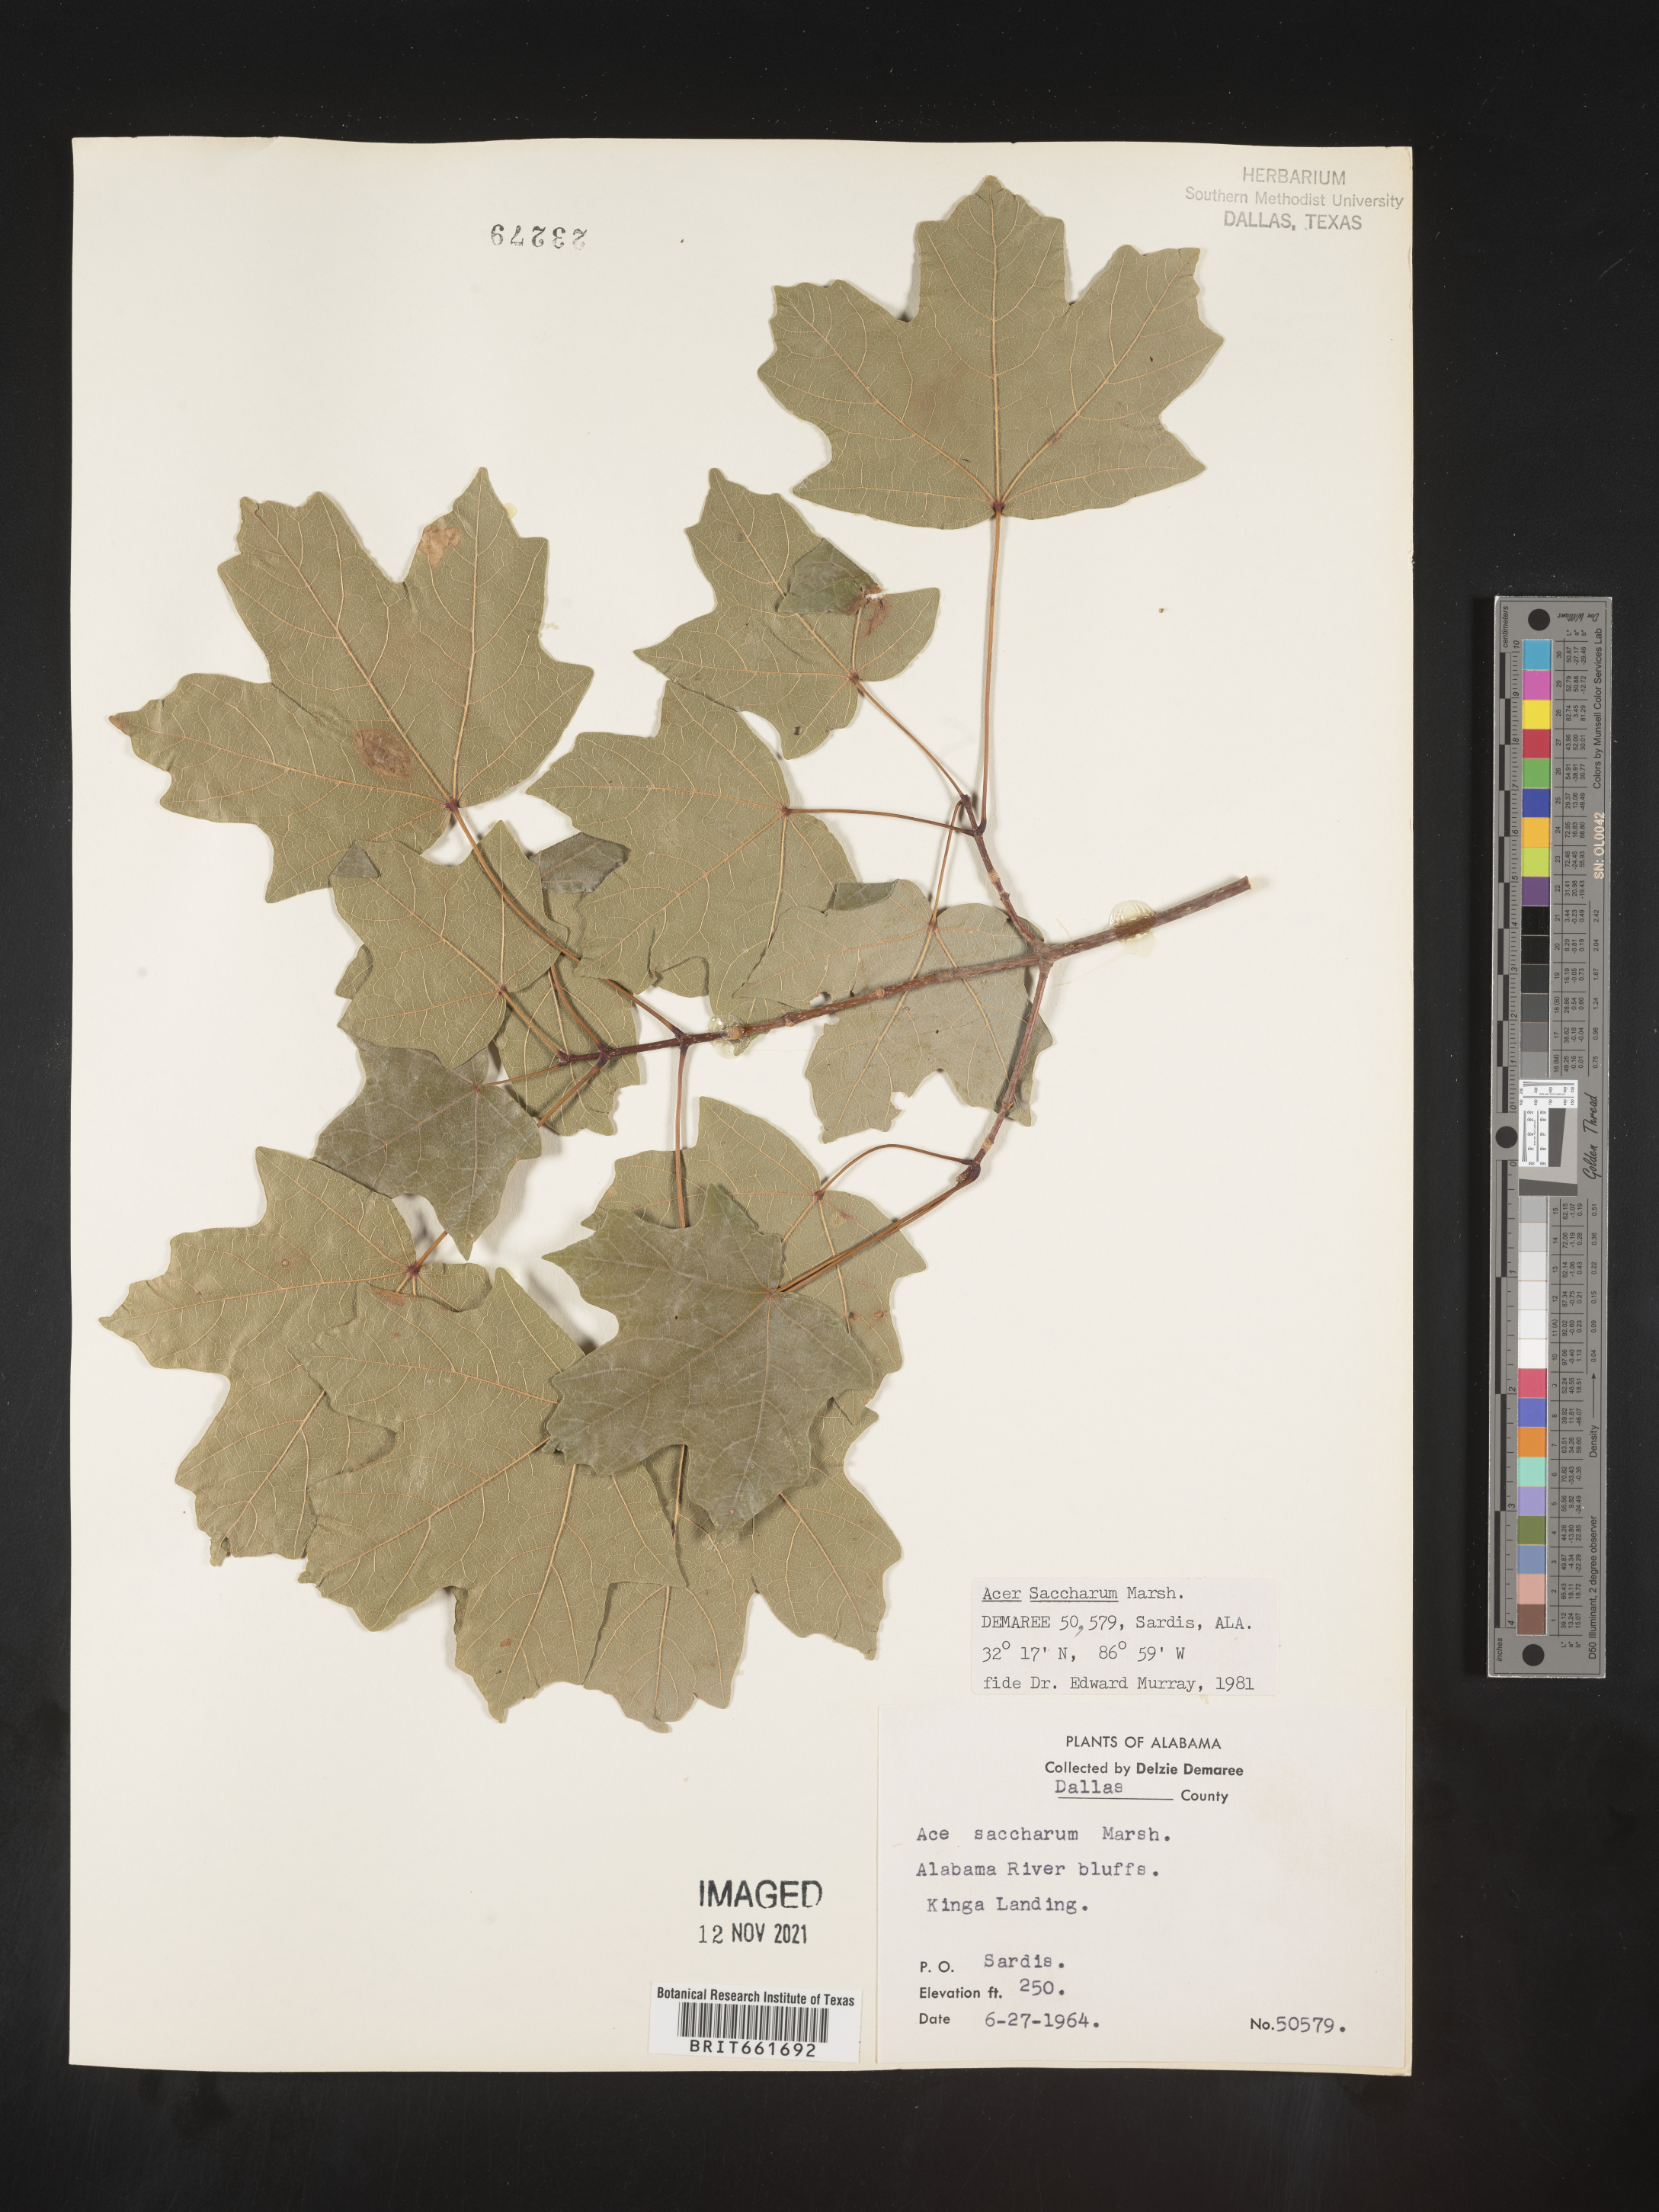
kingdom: Plantae
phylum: Tracheophyta
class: Magnoliopsida
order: Sapindales
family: Sapindaceae
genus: Acer
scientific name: Acer saccharum
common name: Sugar maple
